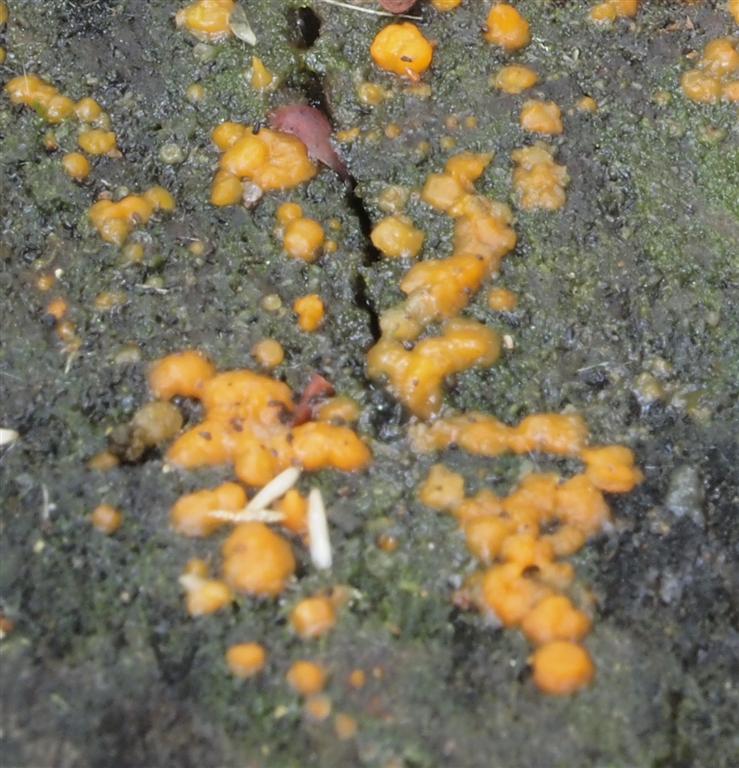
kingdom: Fungi
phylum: Basidiomycota
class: Dacrymycetes
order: Dacrymycetales
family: Dacrymycetaceae
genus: Dacrymyces
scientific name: Dacrymyces stillatus
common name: almindelig tåresvamp
